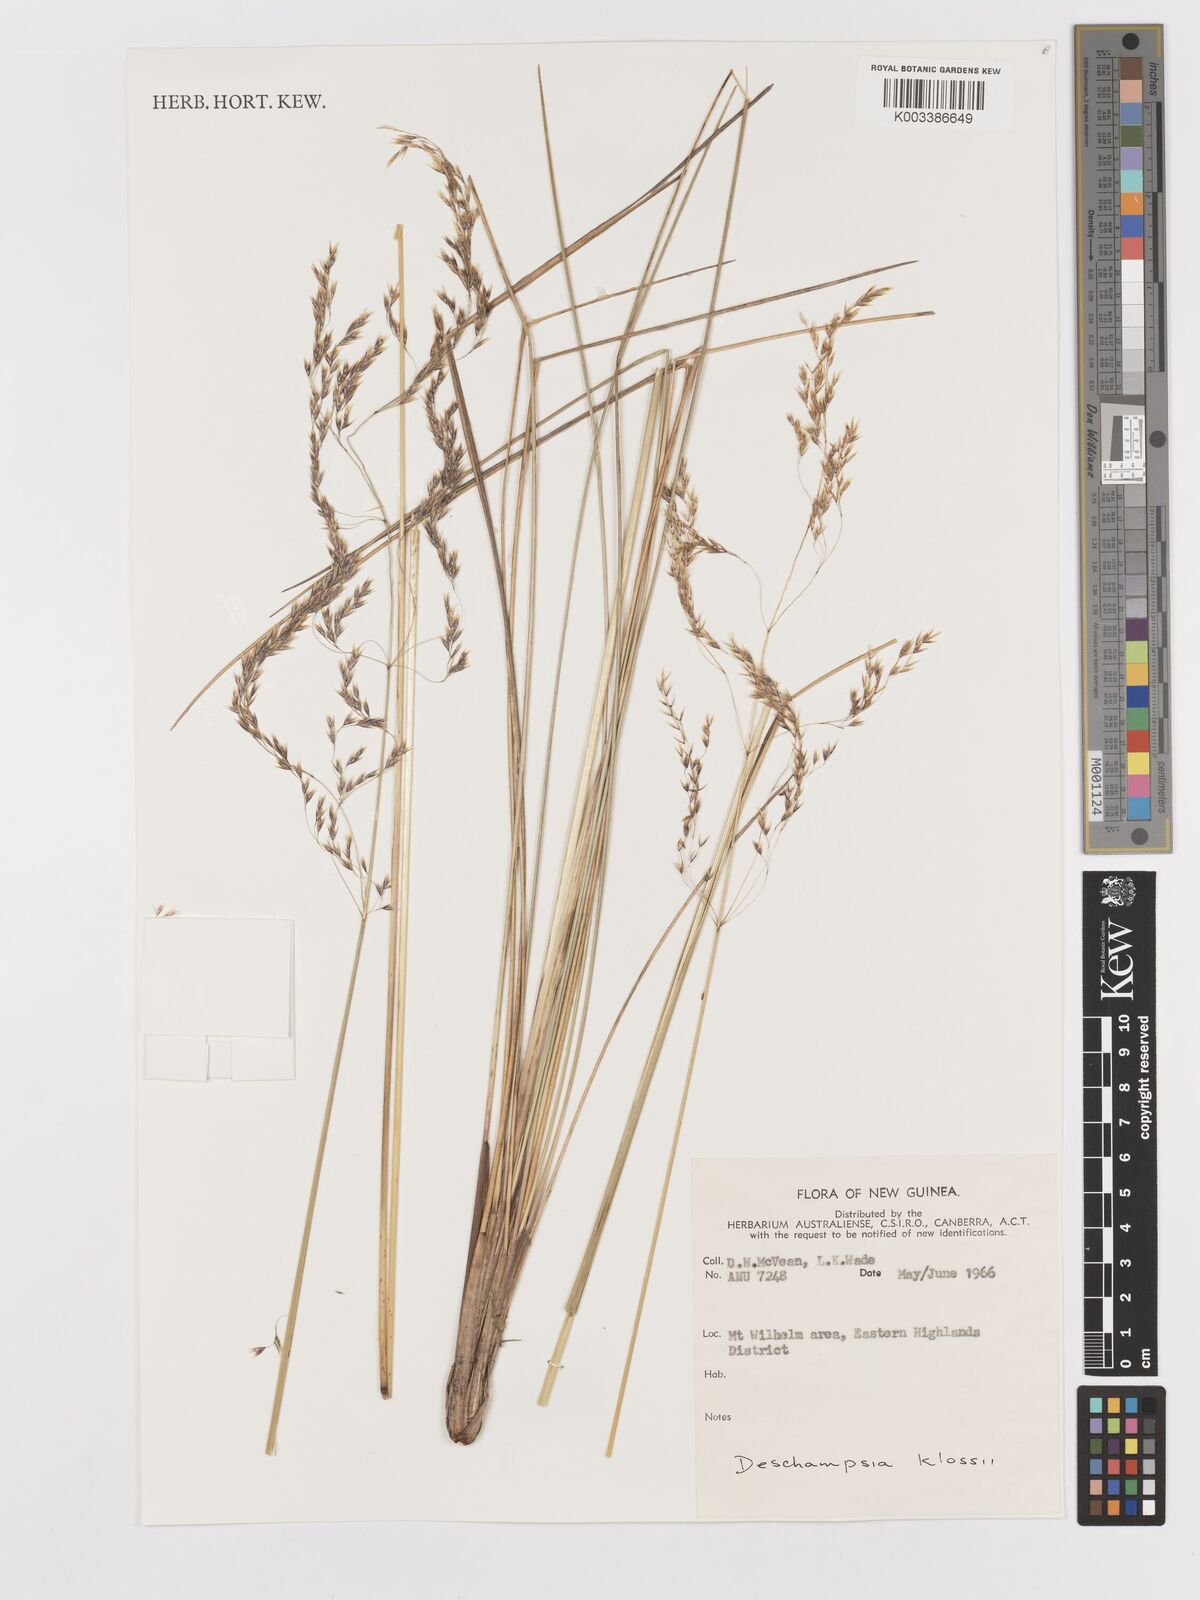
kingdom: Plantae
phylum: Tracheophyta
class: Liliopsida
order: Poales
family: Poaceae
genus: Deschampsia
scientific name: Deschampsia klossii
